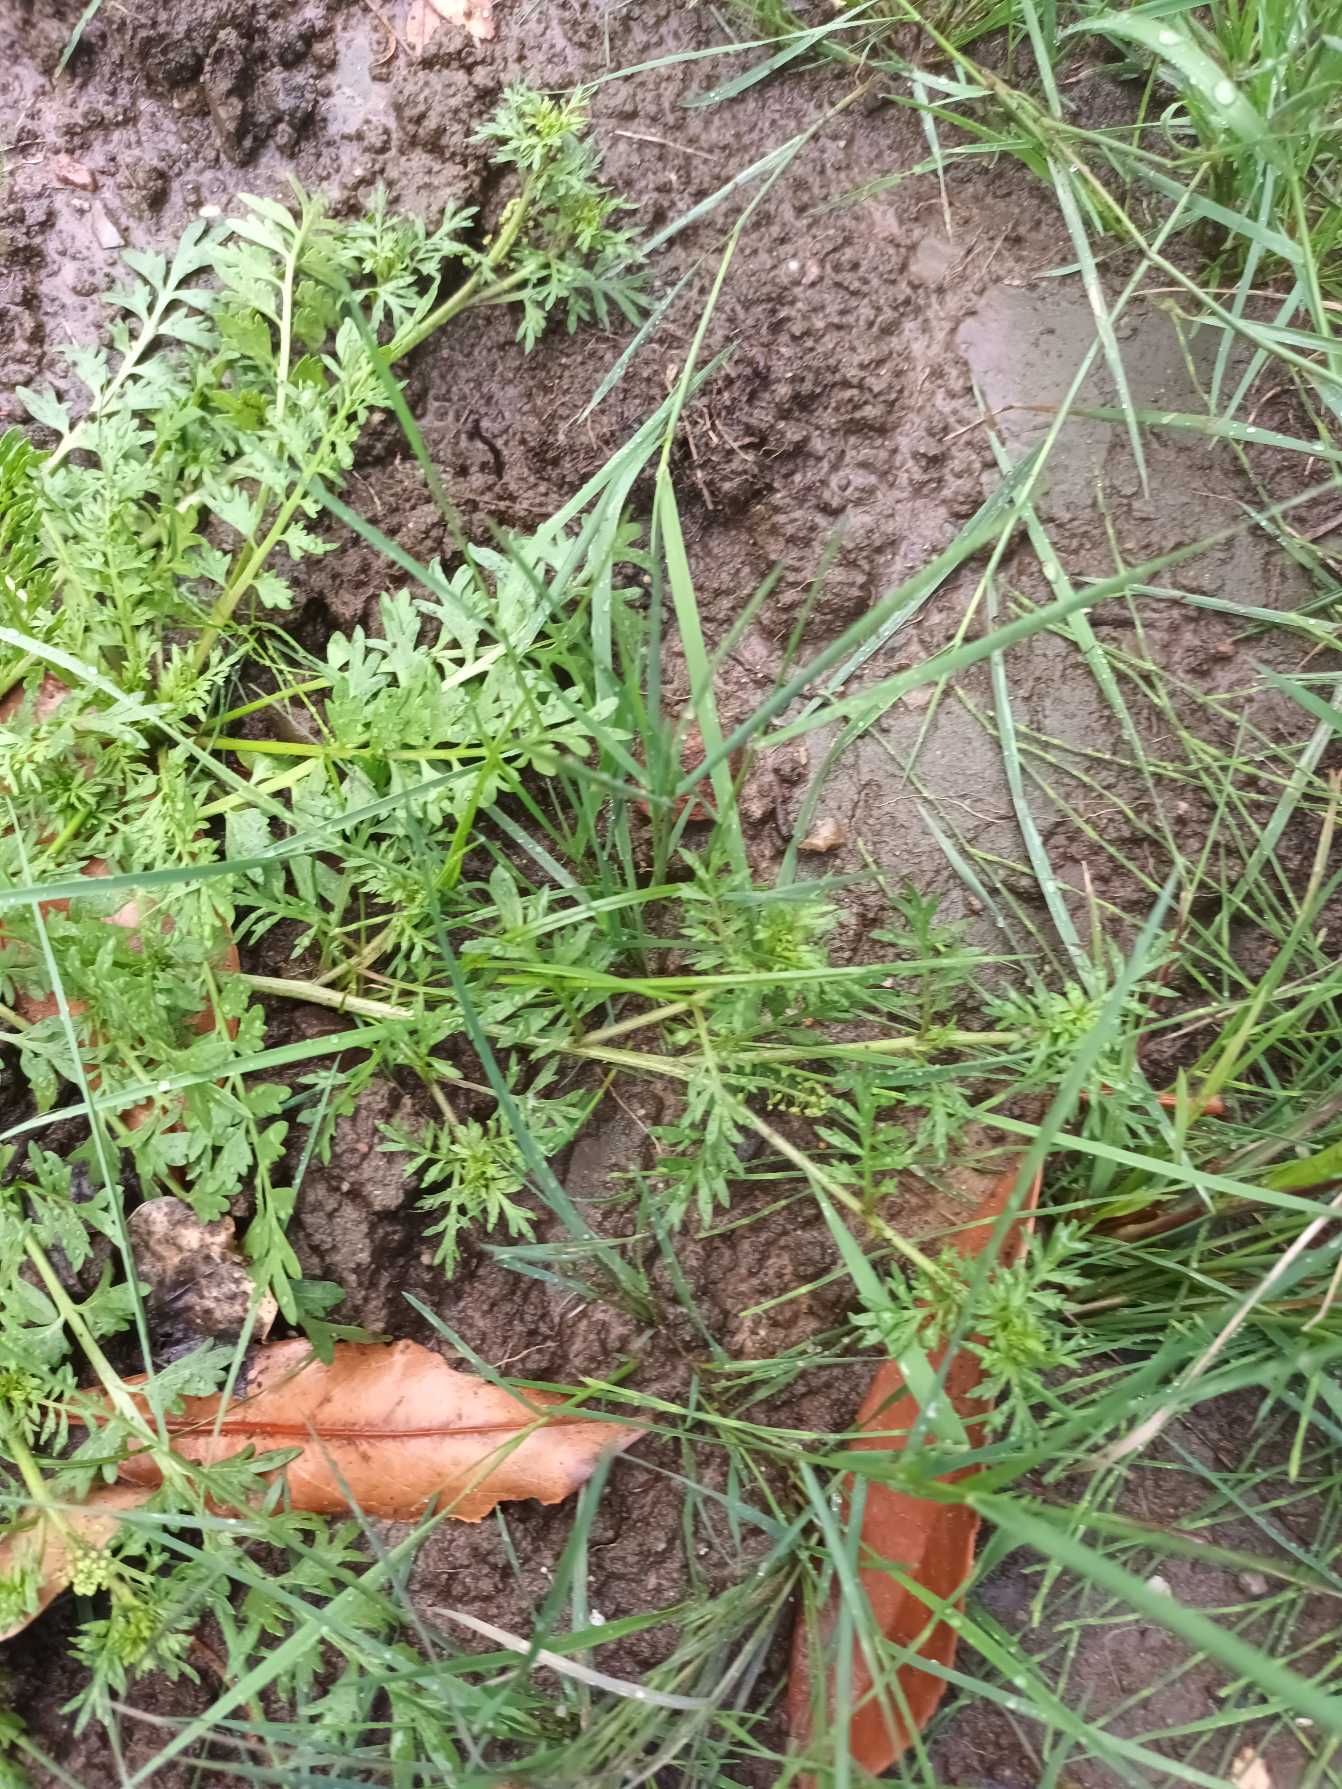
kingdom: Plantae
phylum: Tracheophyta
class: Magnoliopsida
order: Brassicales
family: Brassicaceae
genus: Lepidium
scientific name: Lepidium coronopus
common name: Ravnefod
